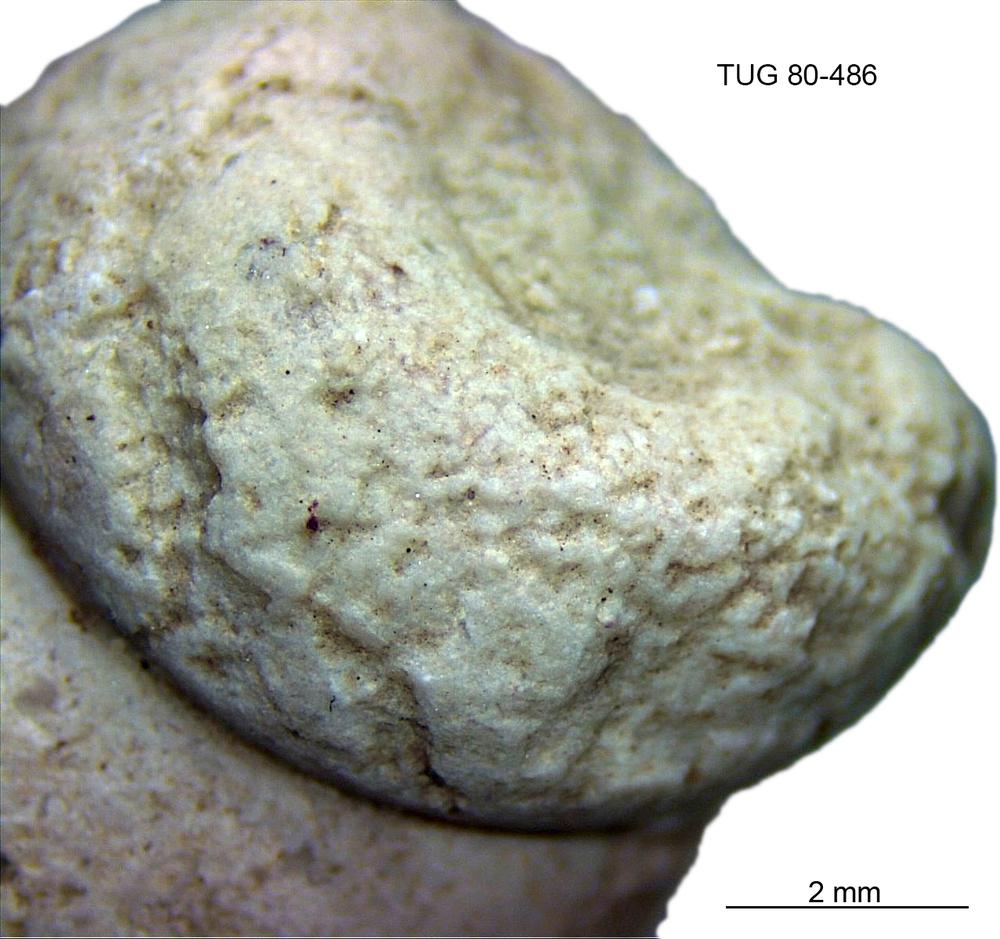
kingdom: Animalia
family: Coprulidae
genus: Coprulus
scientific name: Coprulus
